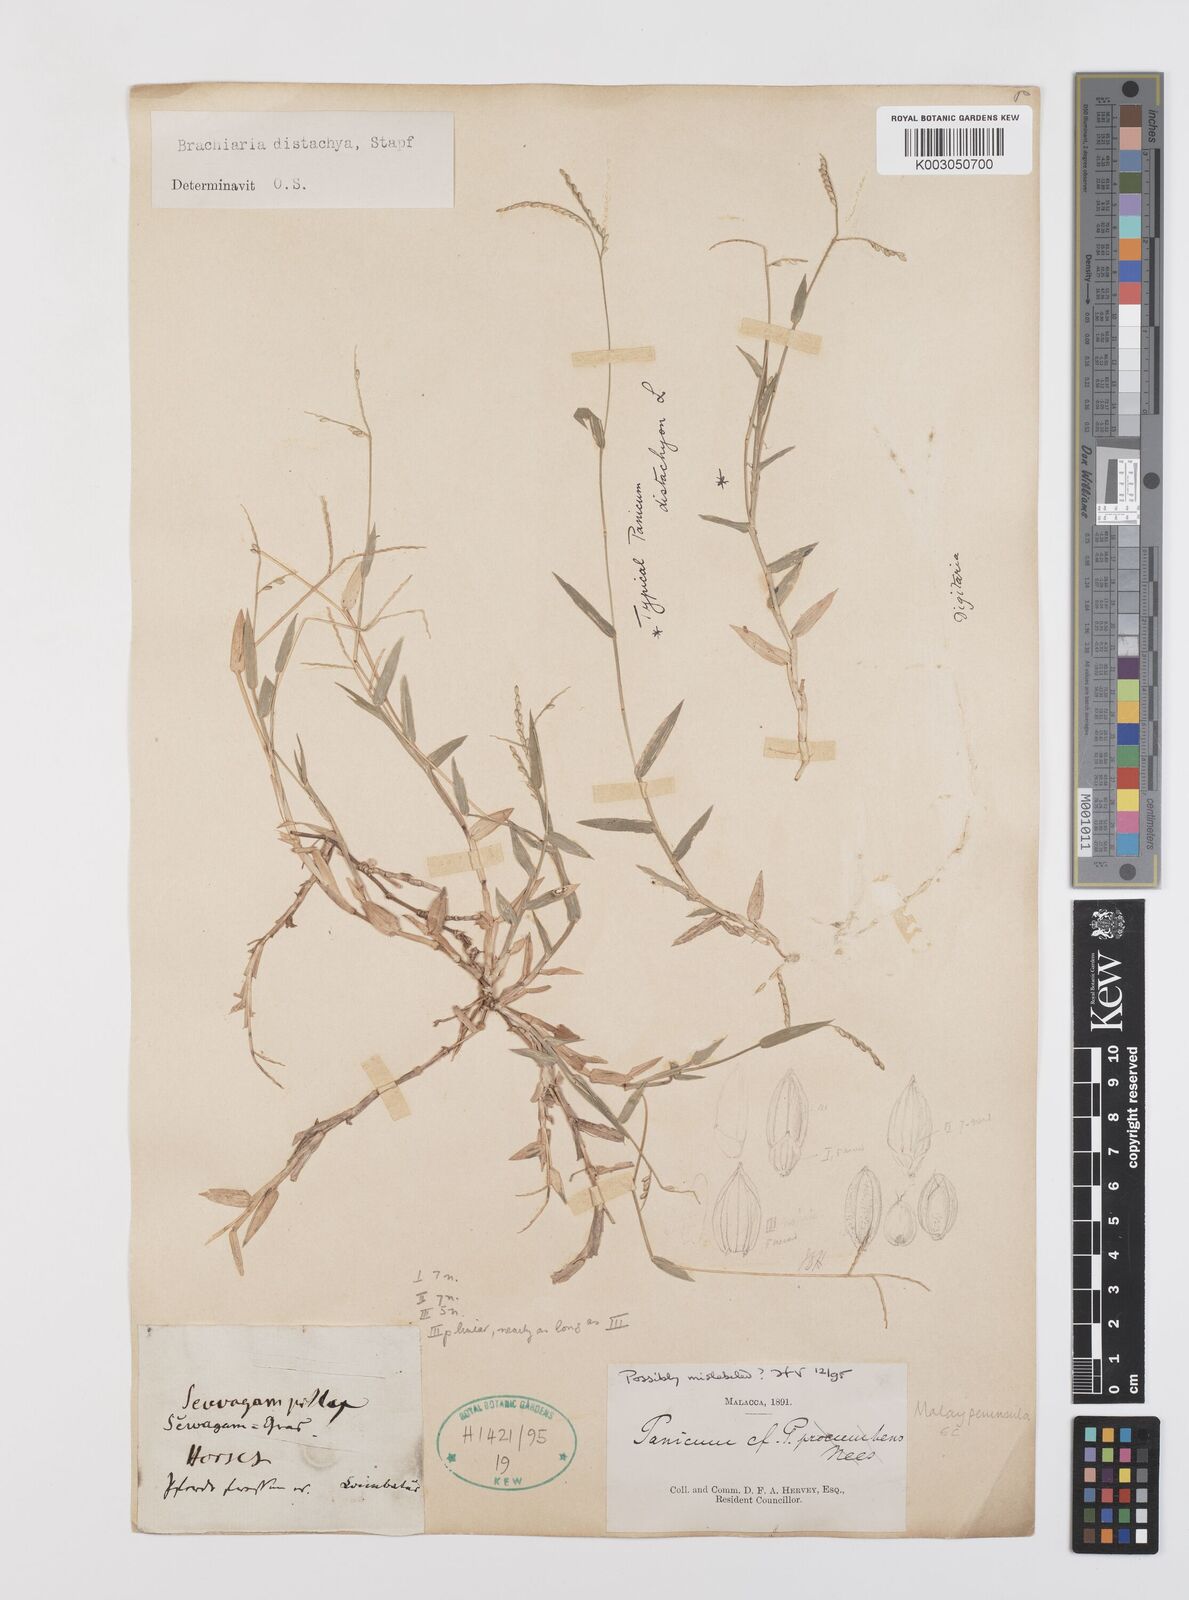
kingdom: Plantae
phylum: Tracheophyta
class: Liliopsida
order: Poales
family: Poaceae
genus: Urochloa
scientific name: Urochloa distachyos
